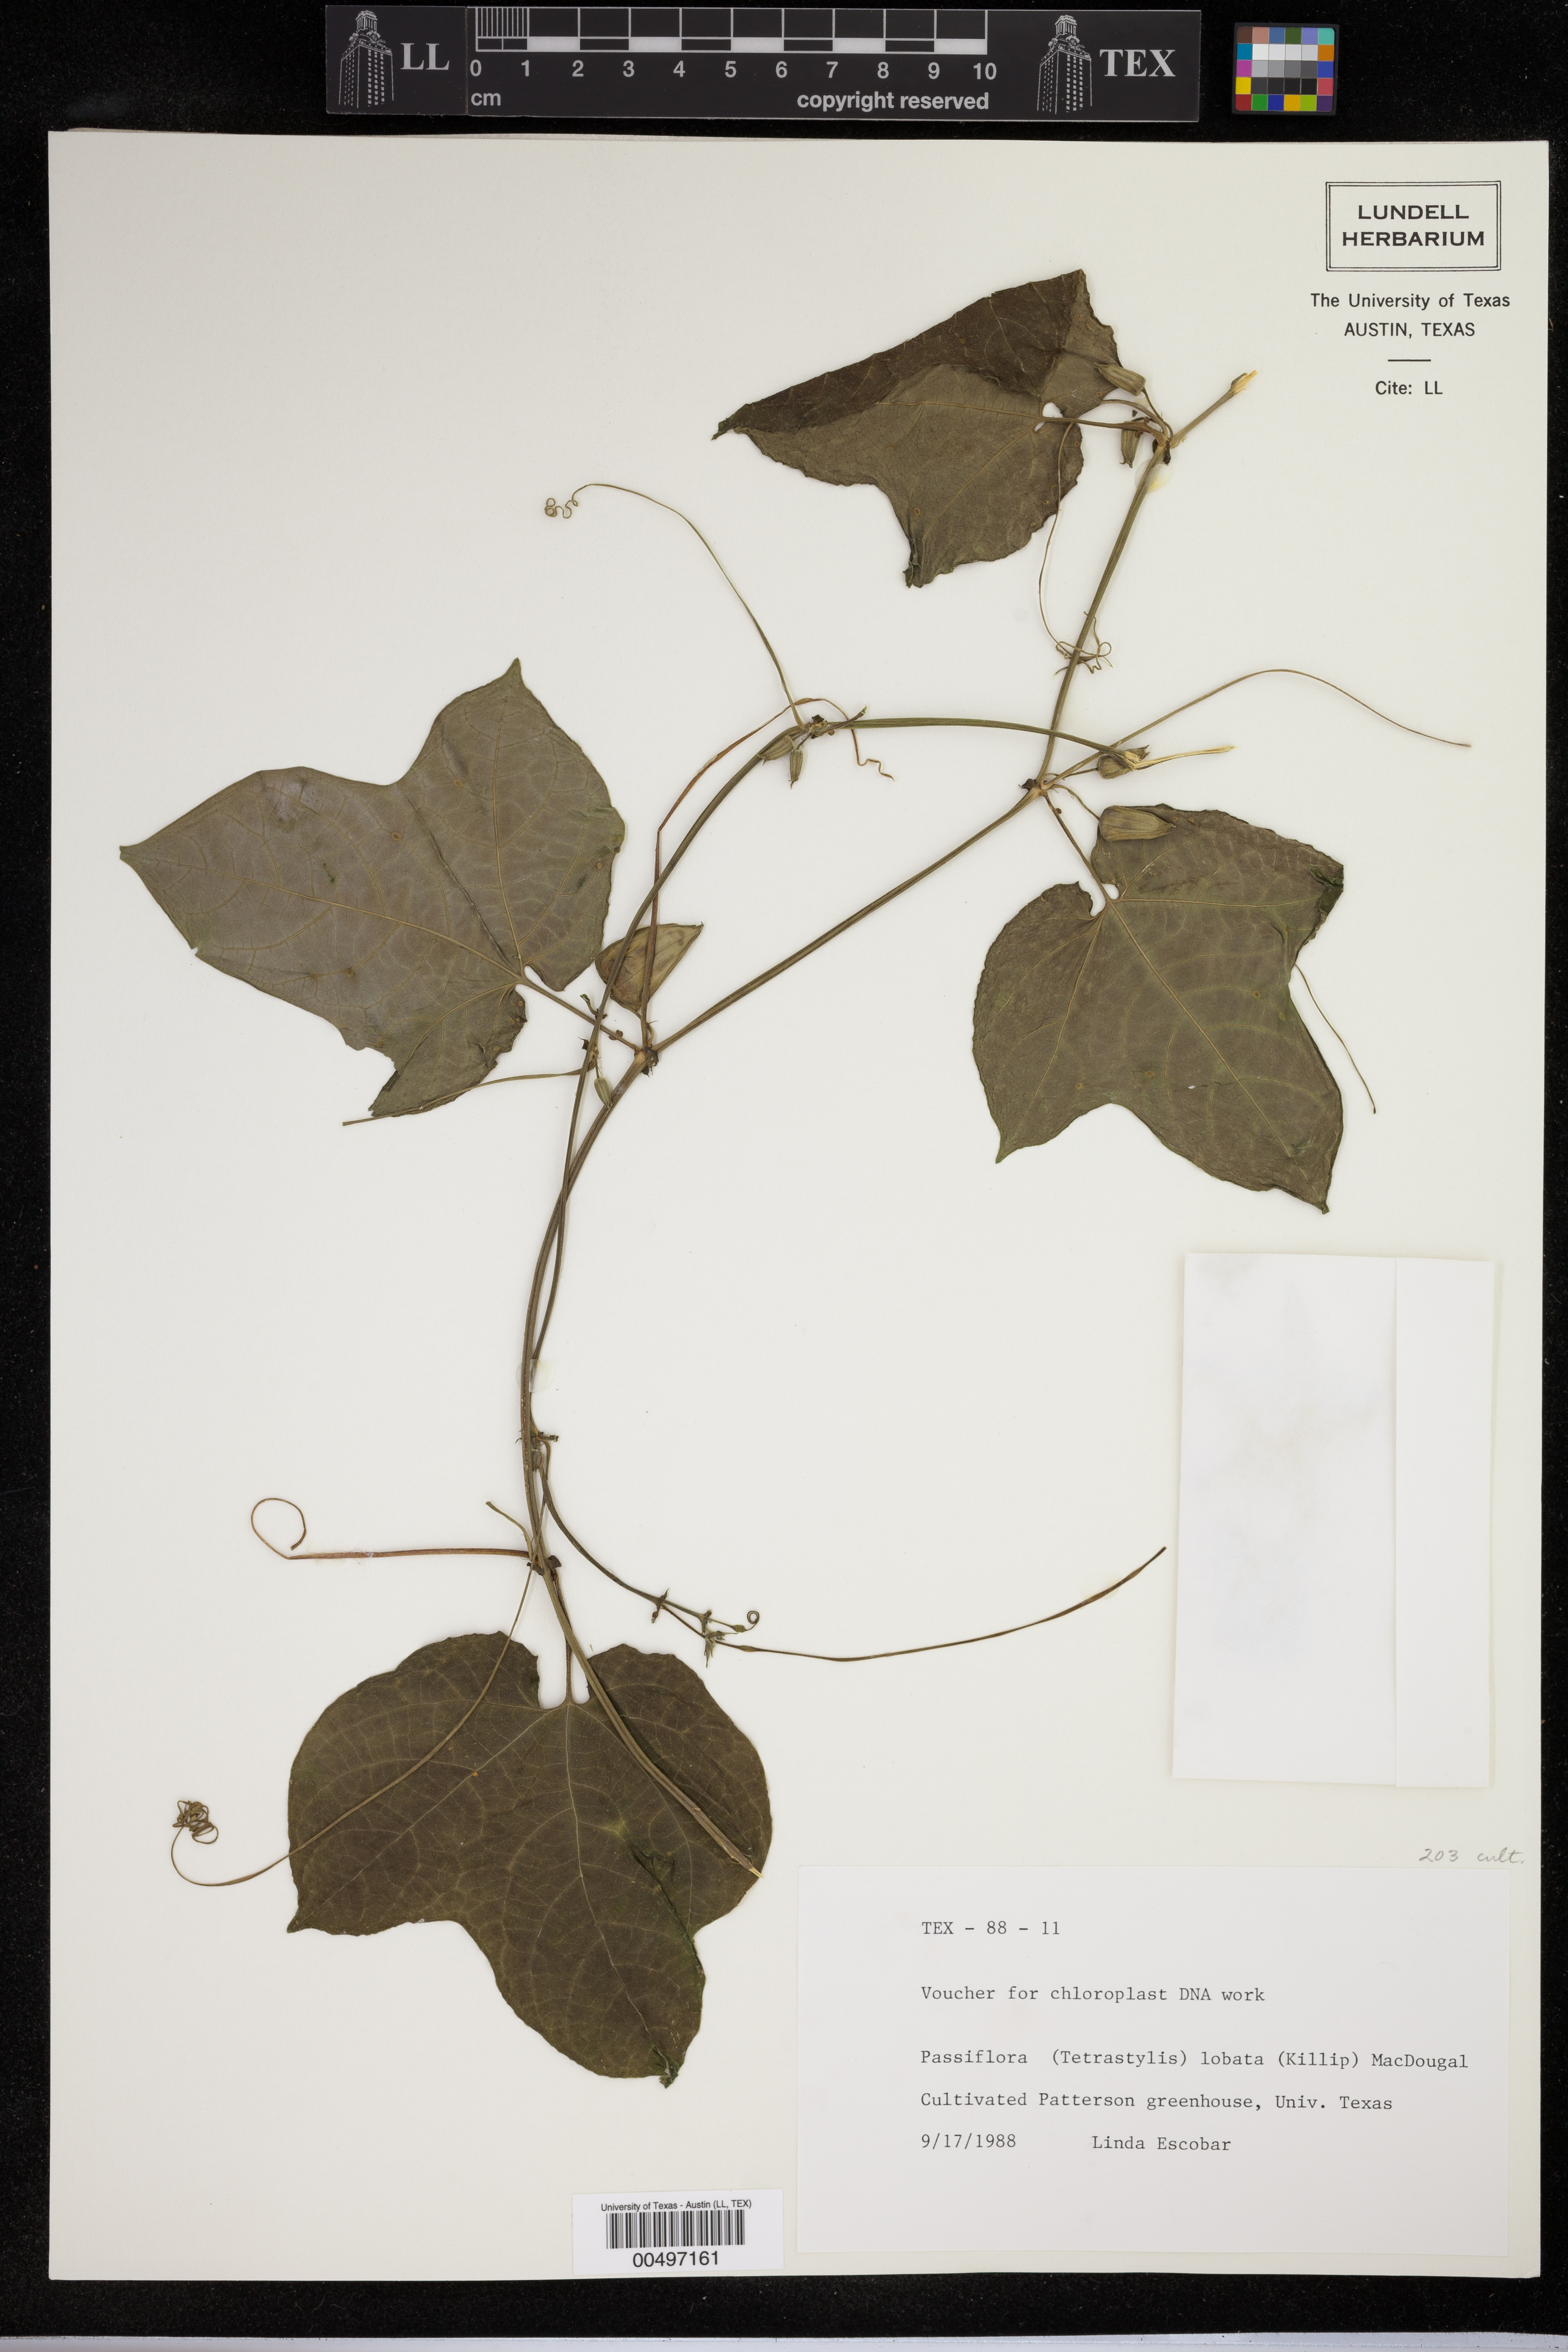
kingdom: Plantae
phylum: Tracheophyta
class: Magnoliopsida
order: Malpighiales
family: Passifloraceae
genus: Passiflora
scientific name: Passiflora lobata
